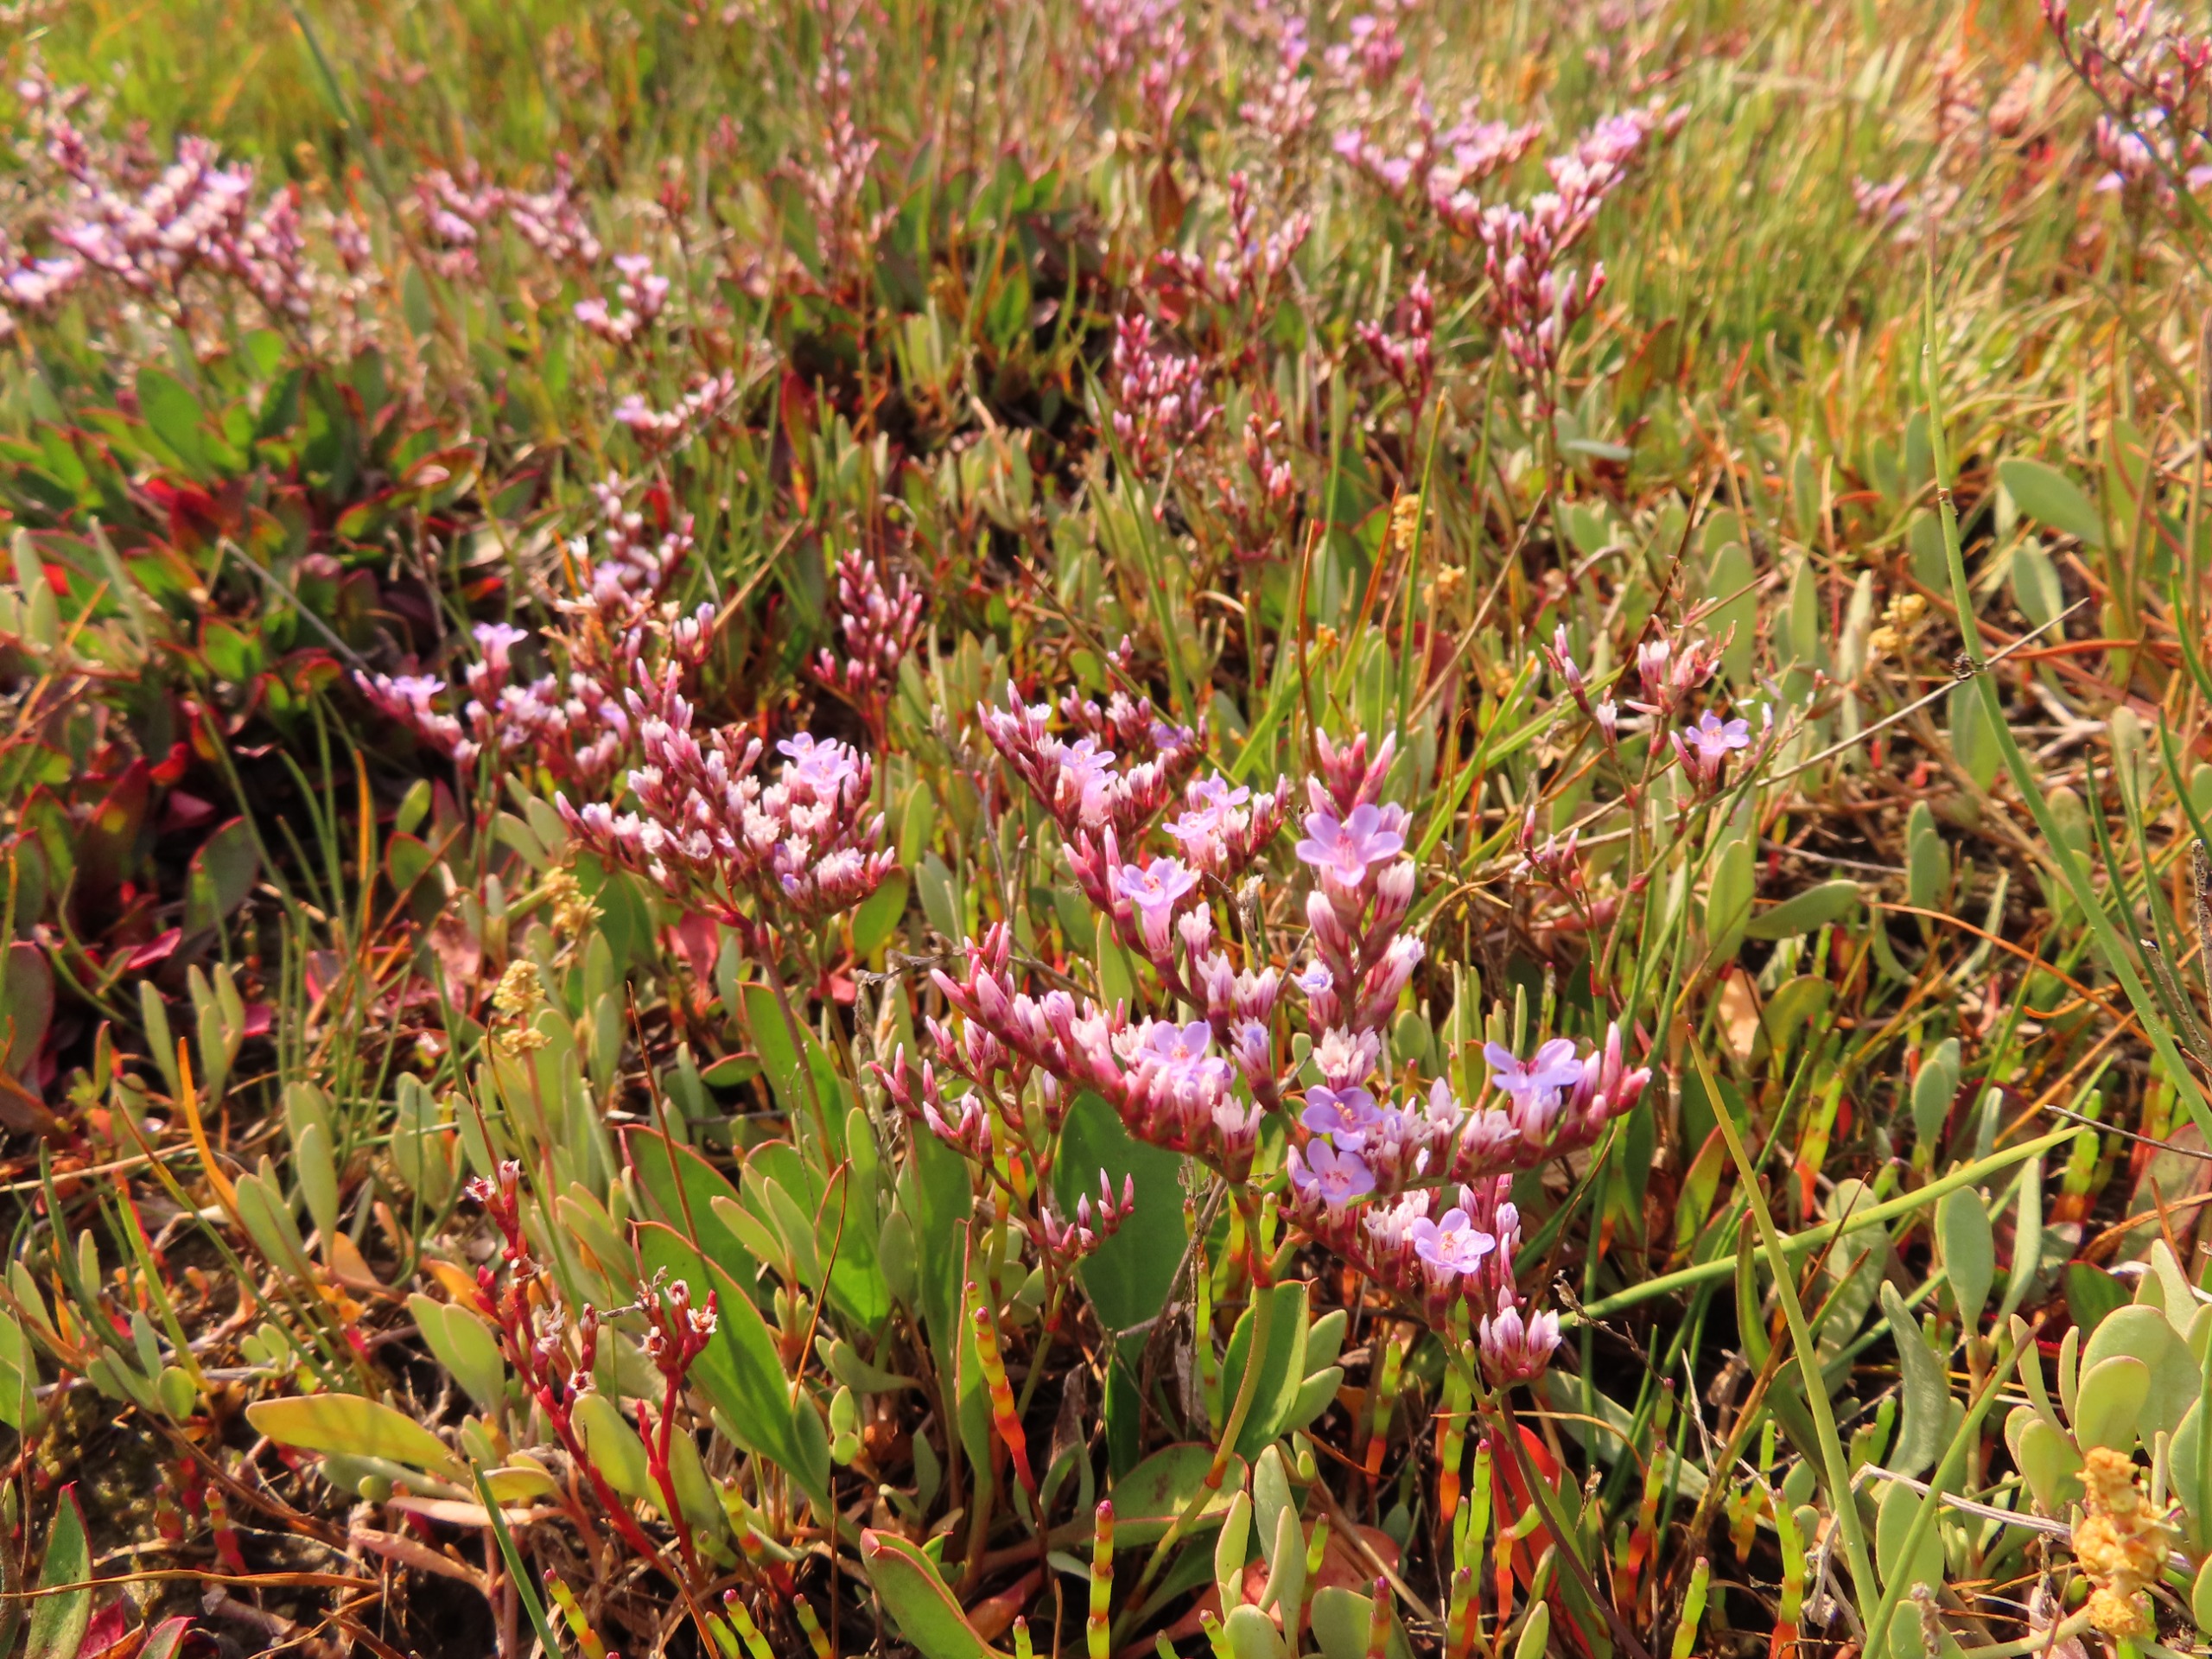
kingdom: Plantae
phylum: Tracheophyta
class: Magnoliopsida
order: Caryophyllales
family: Plumbaginaceae
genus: Limonium
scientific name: Limonium
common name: Lav hindebæger × tætblomstret hindebæger
